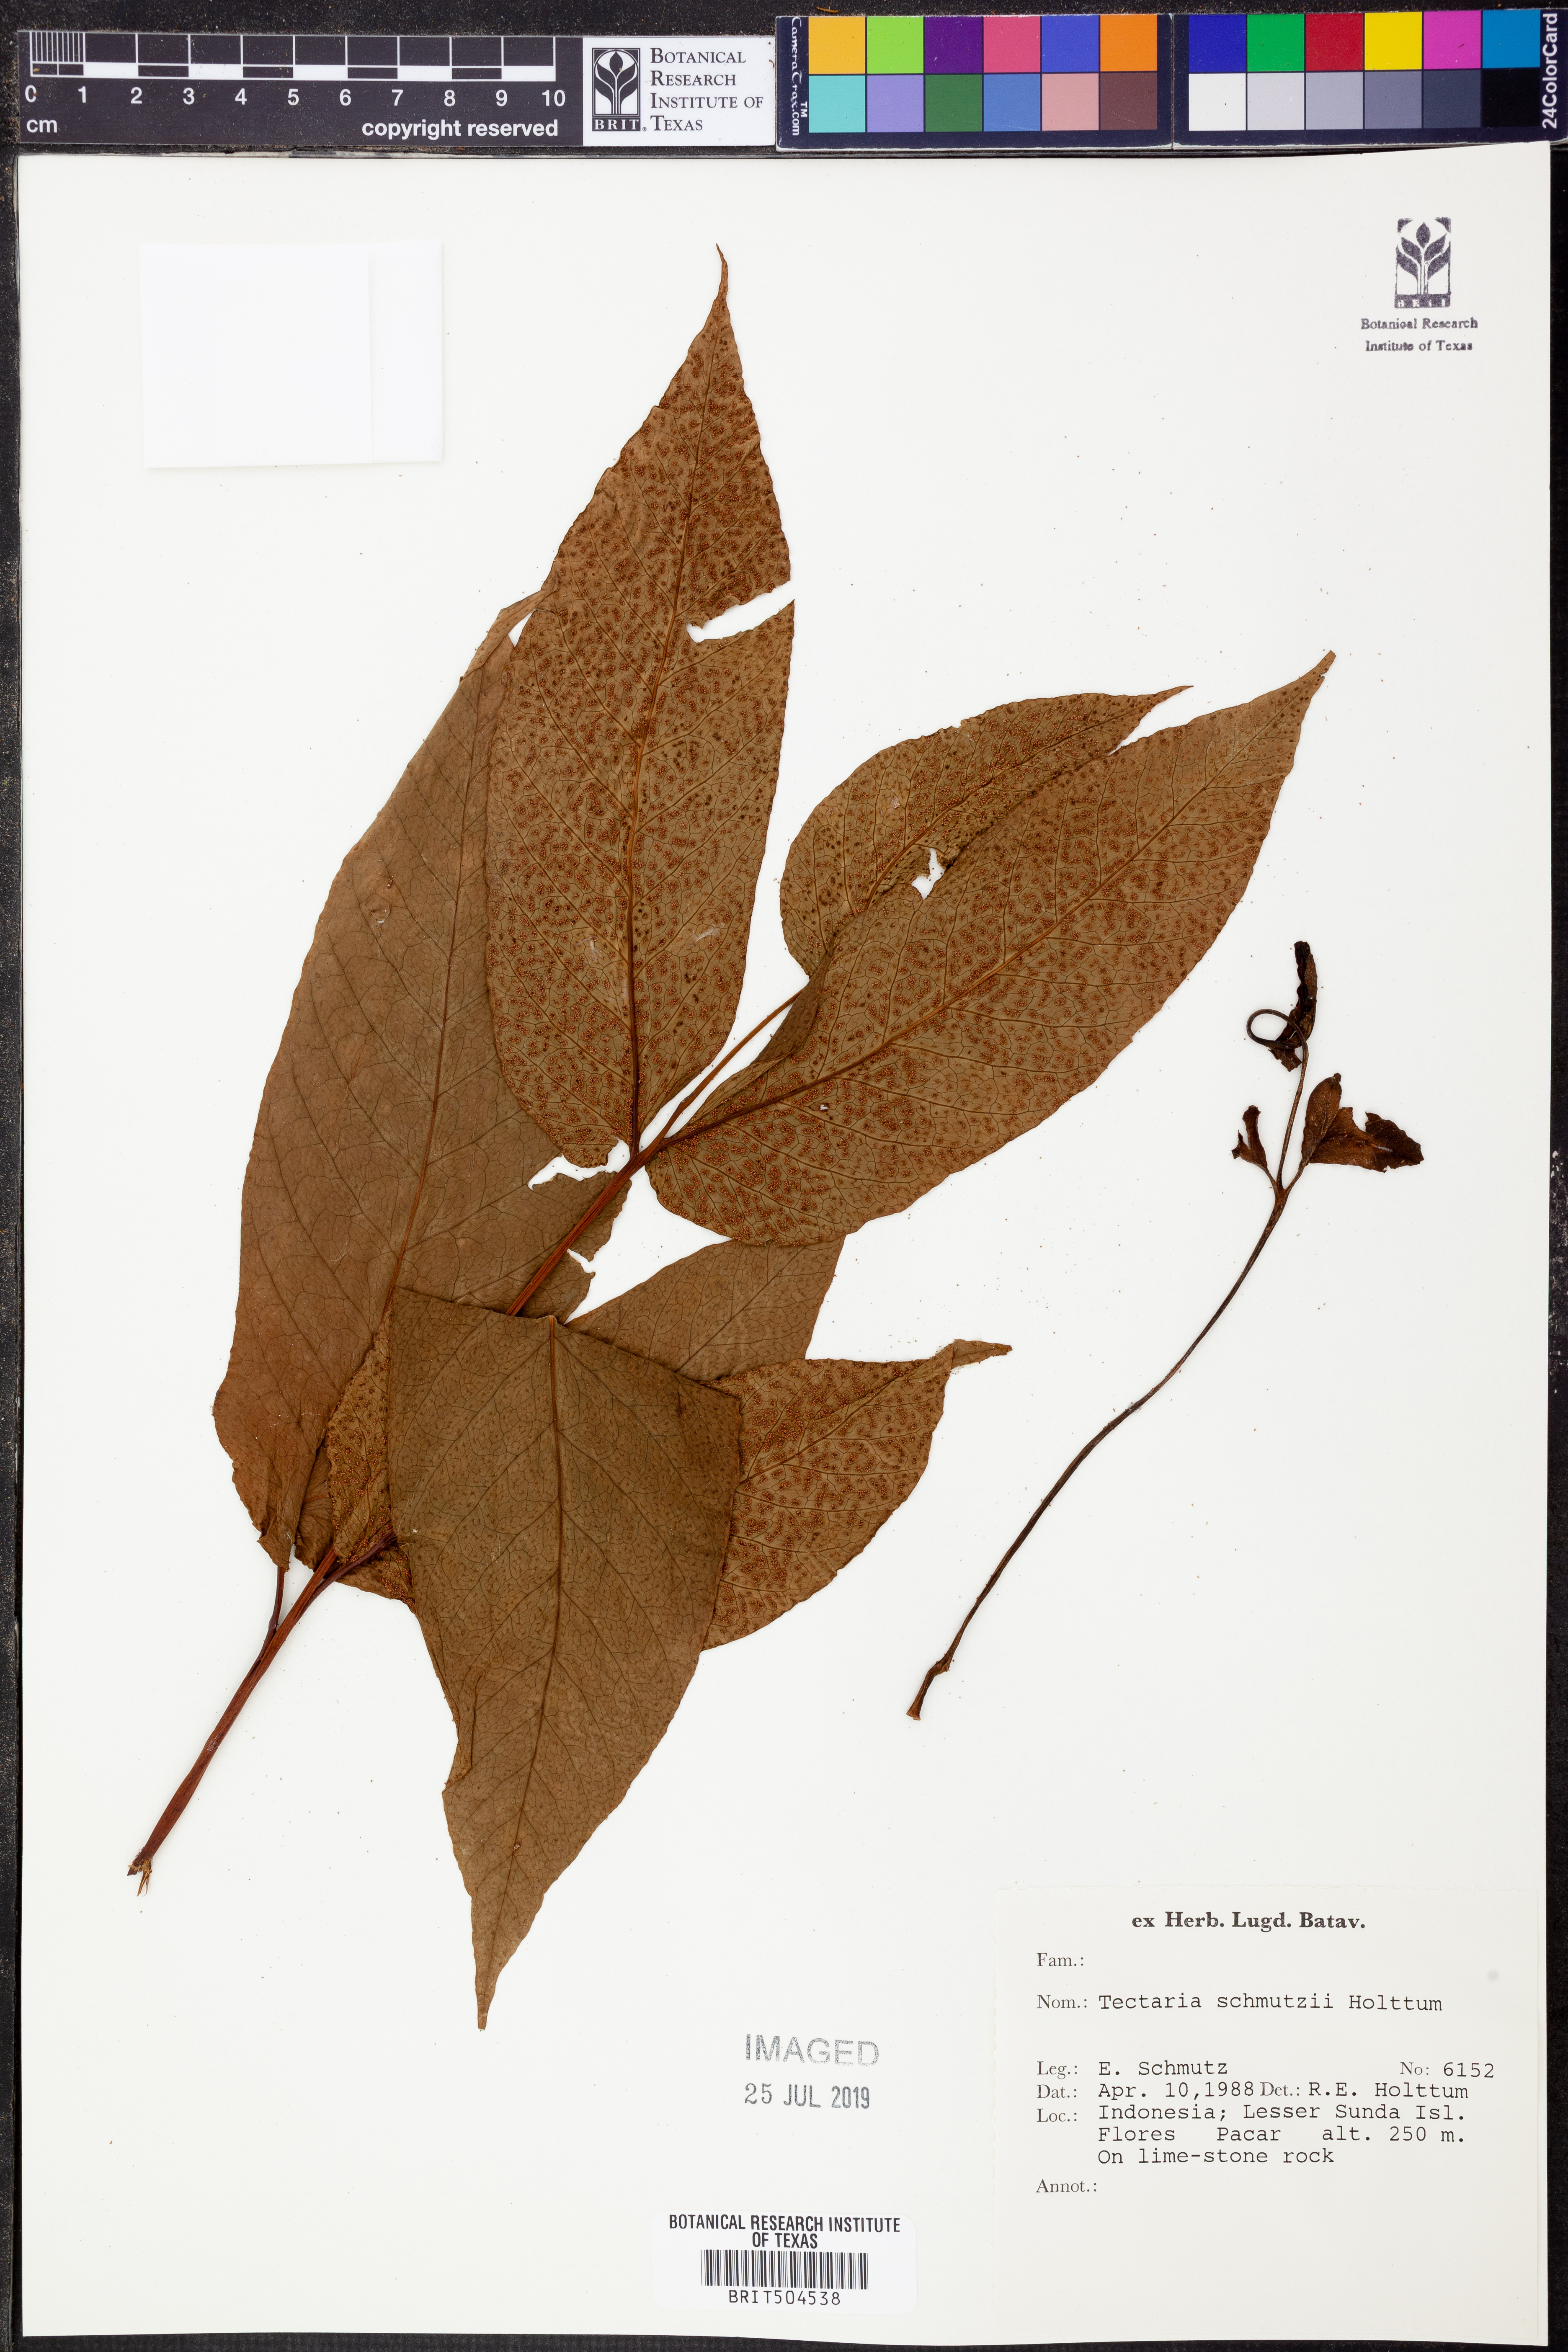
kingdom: Plantae
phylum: Tracheophyta
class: Polypodiopsida
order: Polypodiales
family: Tectariaceae
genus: Tectaria
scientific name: Tectaria schmutzii
